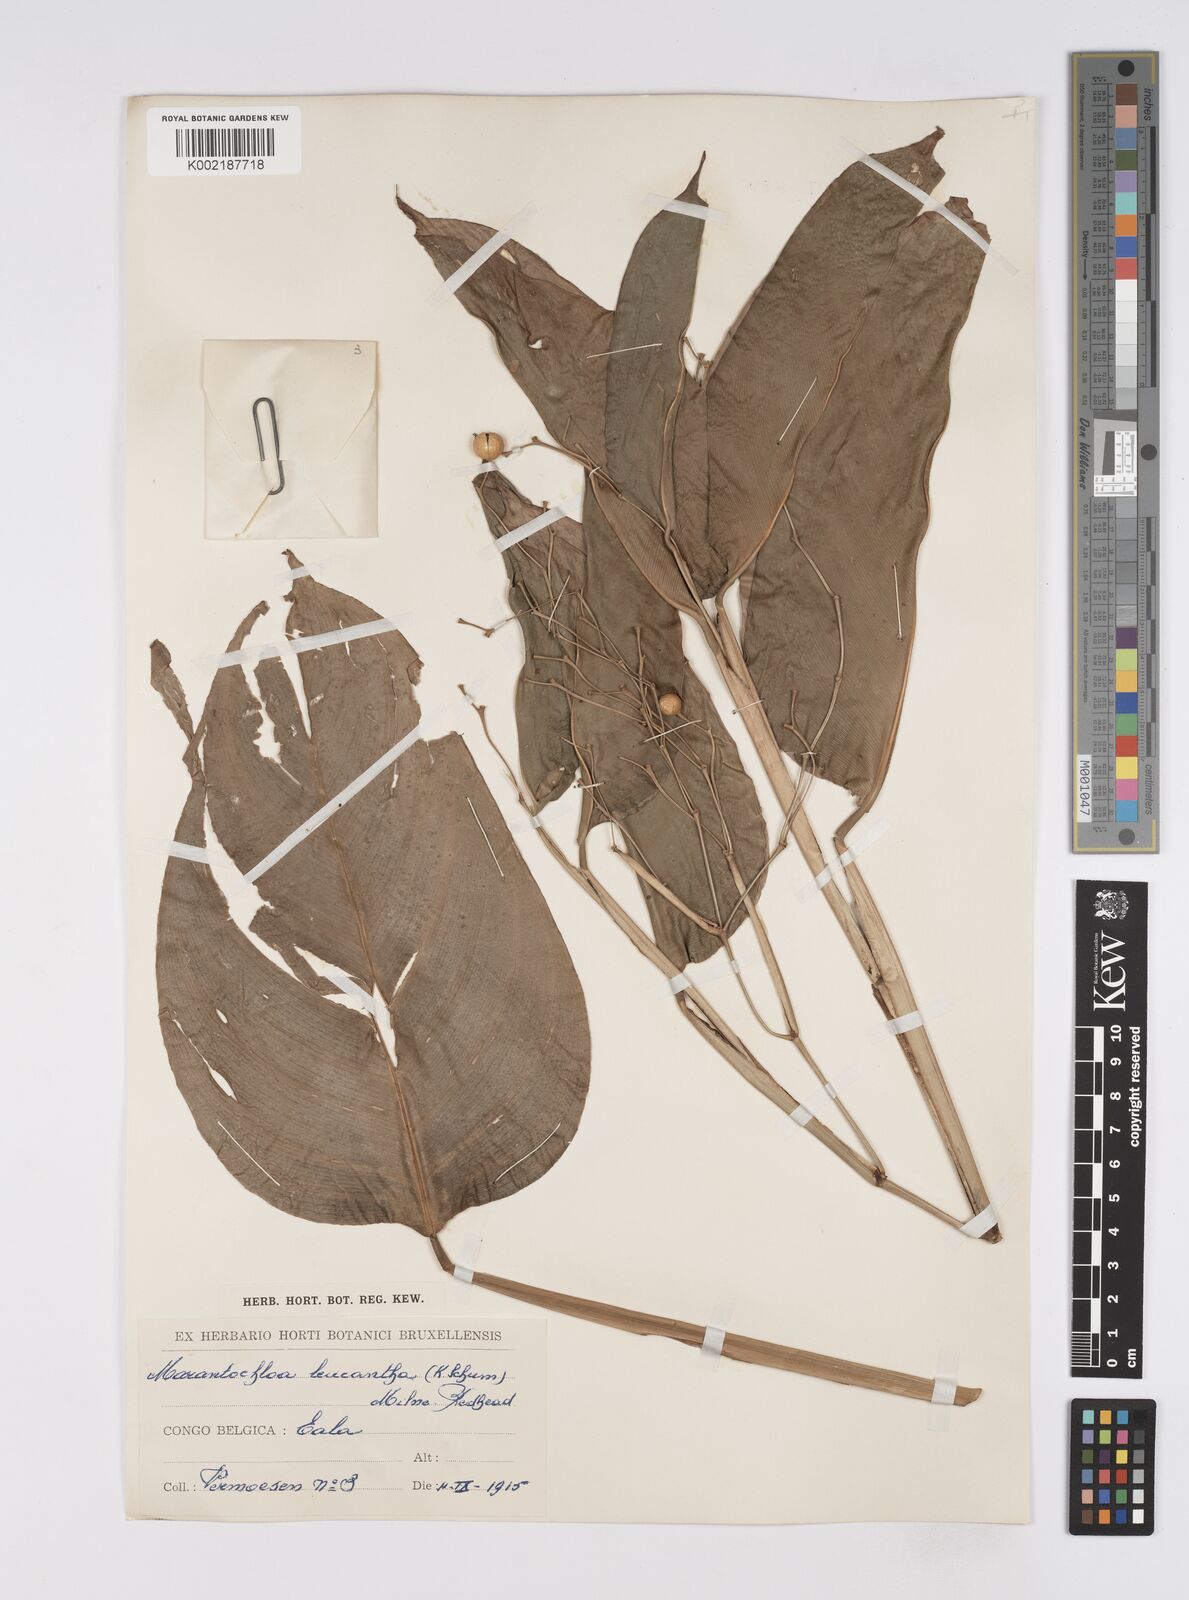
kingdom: Plantae
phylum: Tracheophyta
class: Liliopsida
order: Zingiberales
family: Marantaceae
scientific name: Marantaceae
